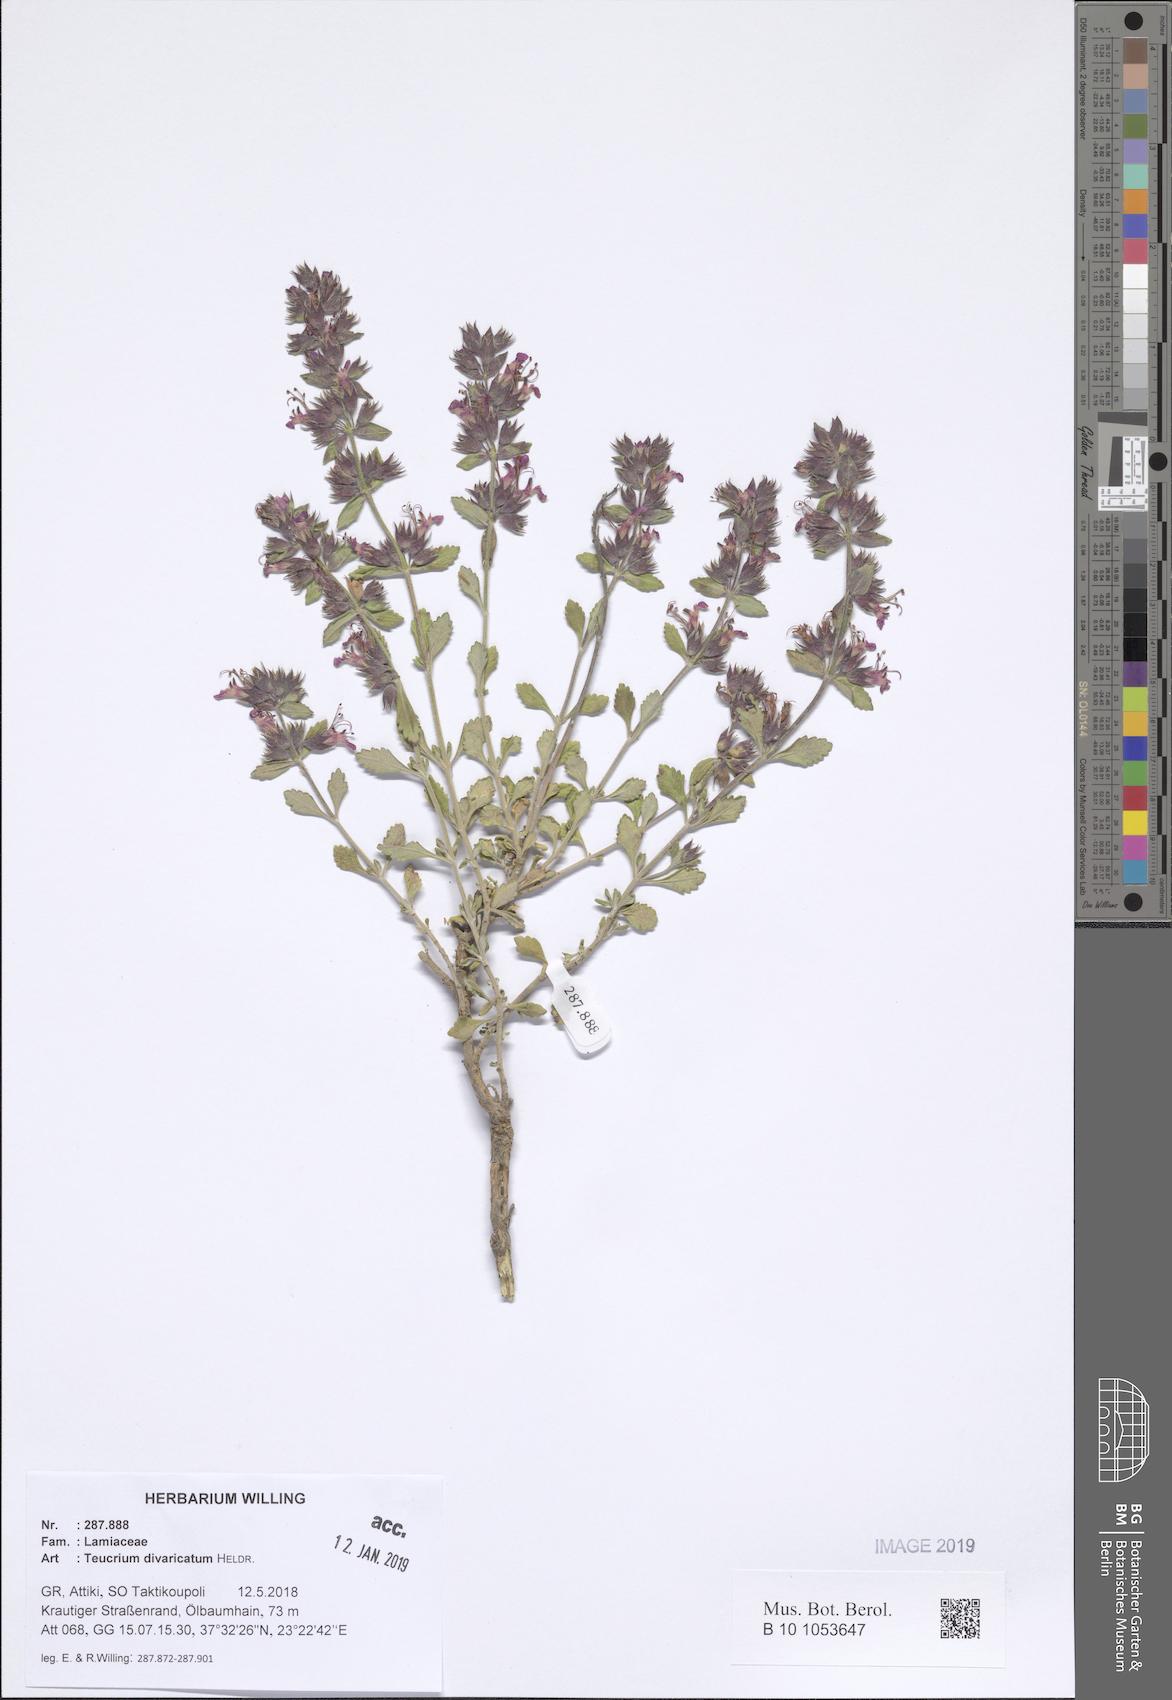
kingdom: Plantae
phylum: Tracheophyta
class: Magnoliopsida
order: Lamiales
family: Lamiaceae
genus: Teucrium
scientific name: Teucrium divaricatum
